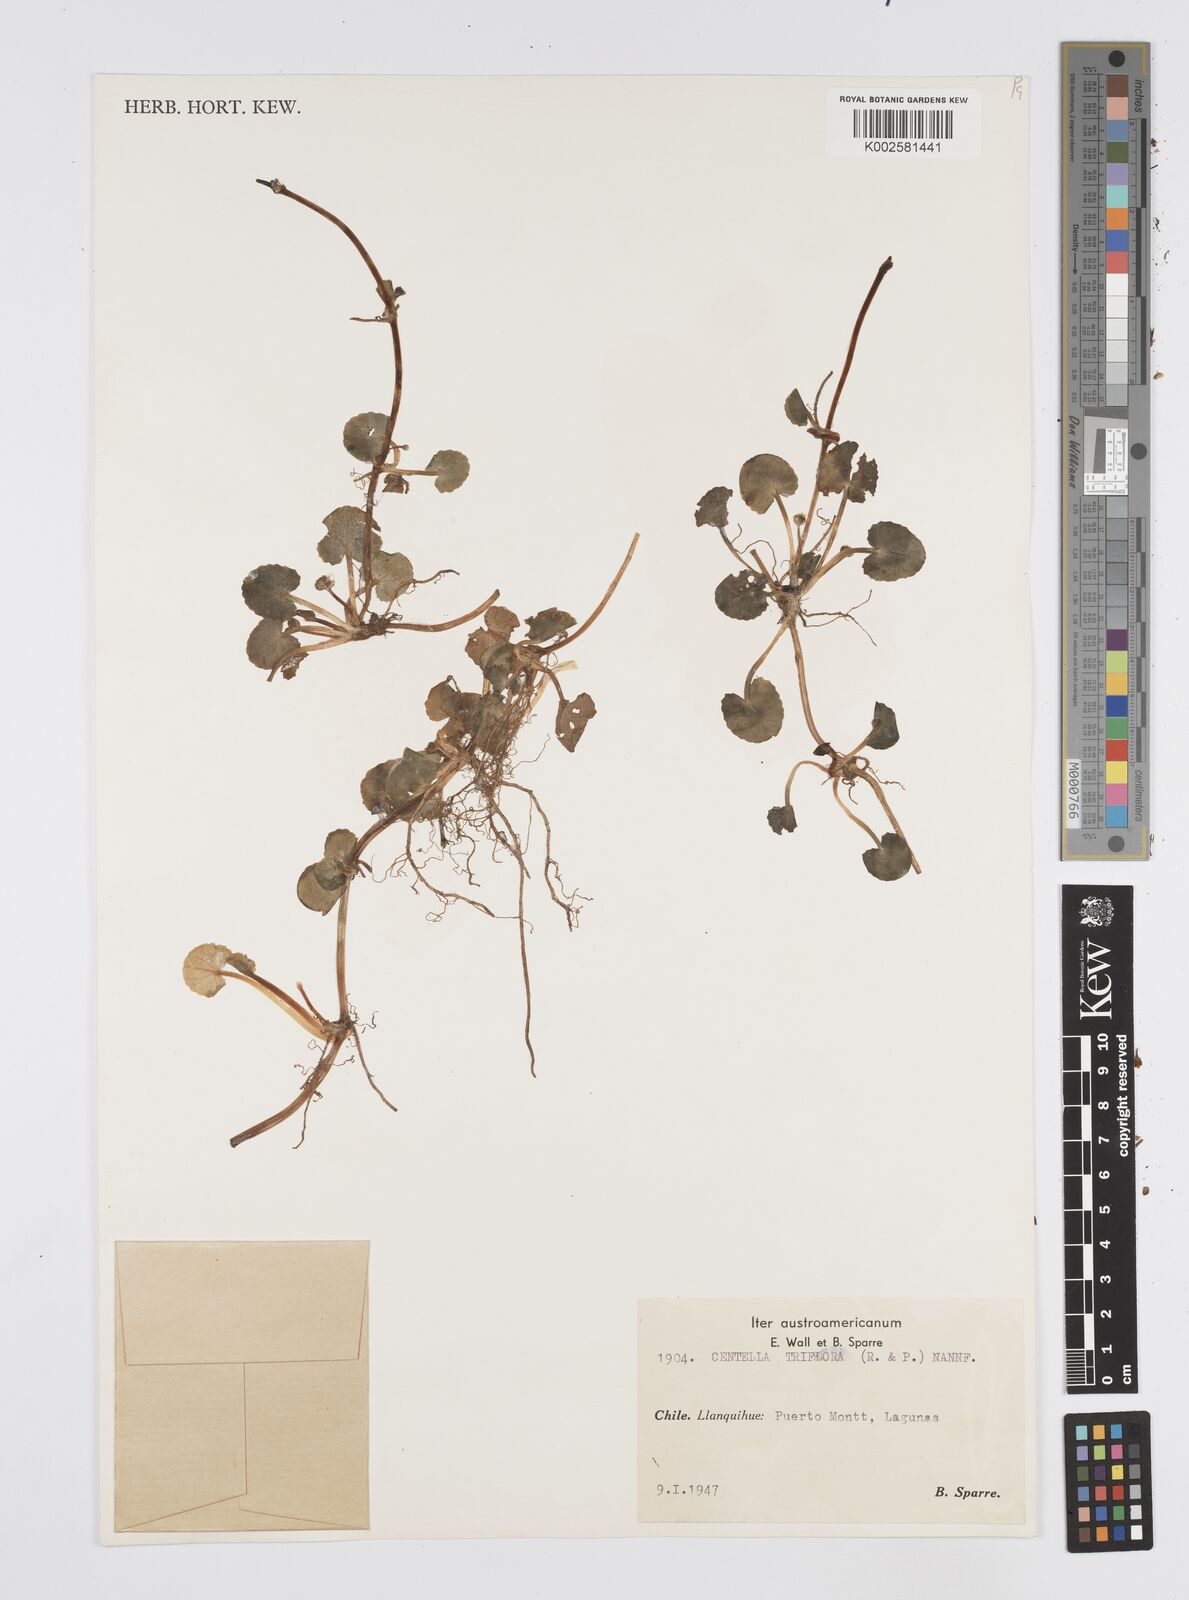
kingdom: Plantae
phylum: Tracheophyta
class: Magnoliopsida
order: Apiales
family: Apiaceae
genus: Centella
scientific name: Centella erecta
